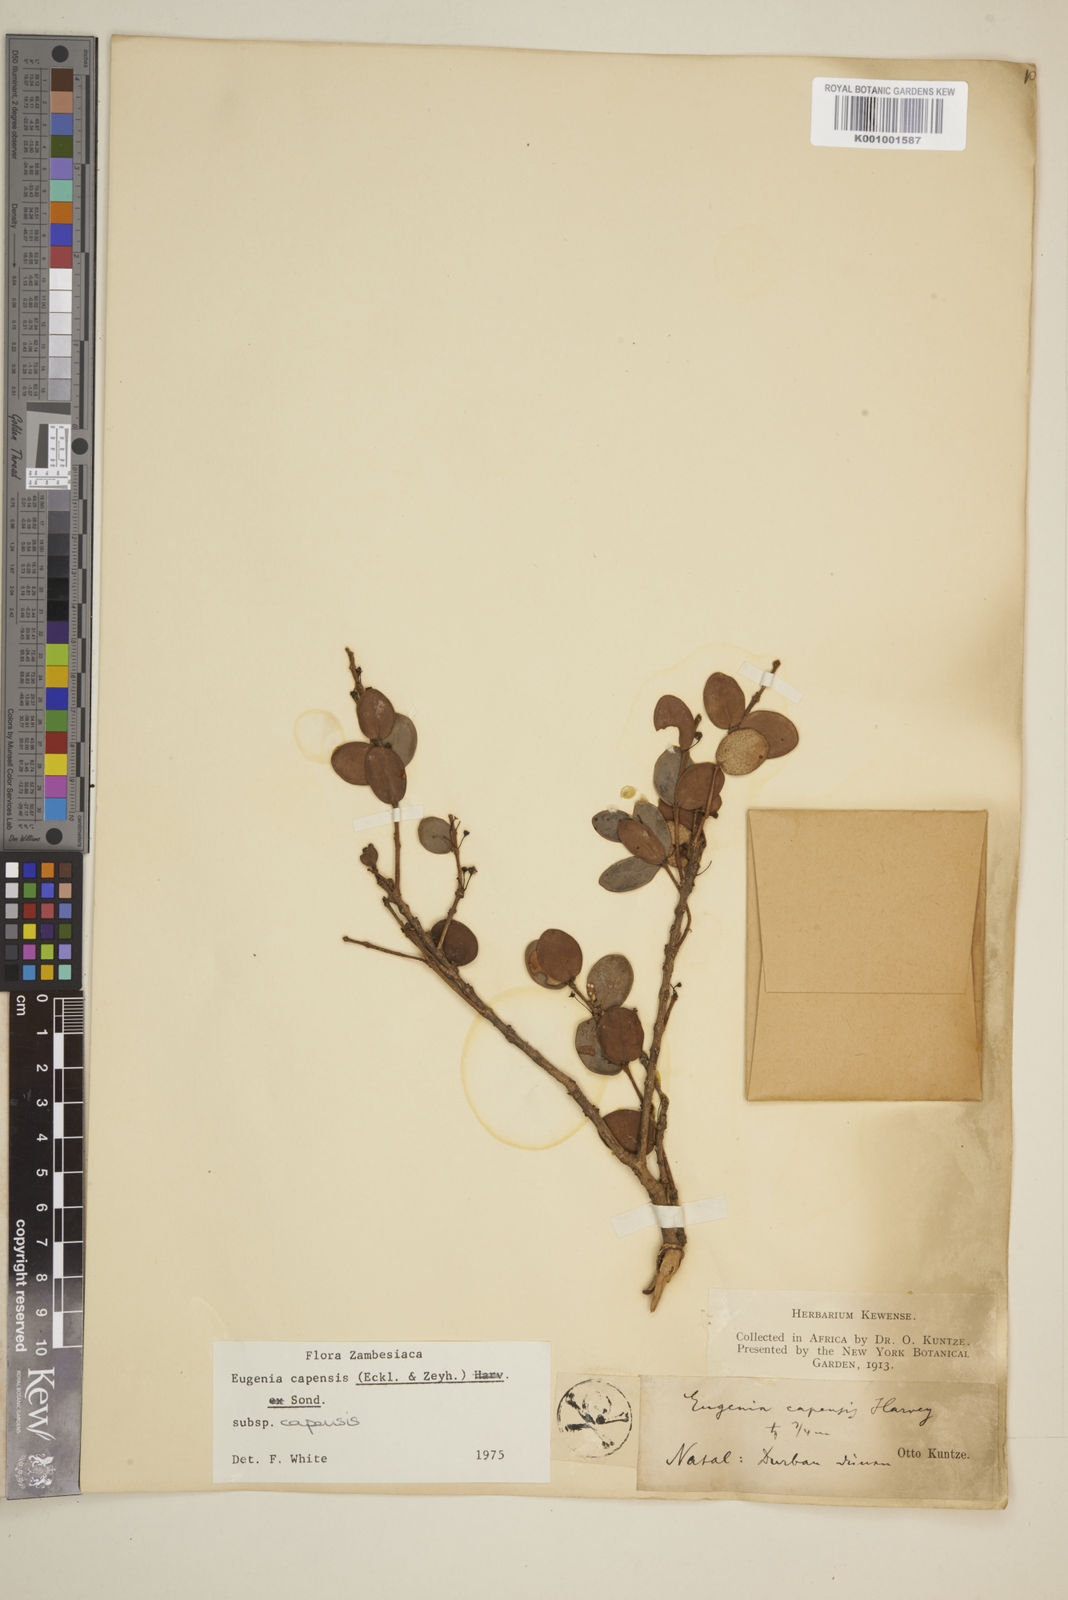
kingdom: Plantae
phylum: Tracheophyta
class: Magnoliopsida
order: Myrtales
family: Myrtaceae
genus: Eugenia
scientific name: Eugenia capensis
